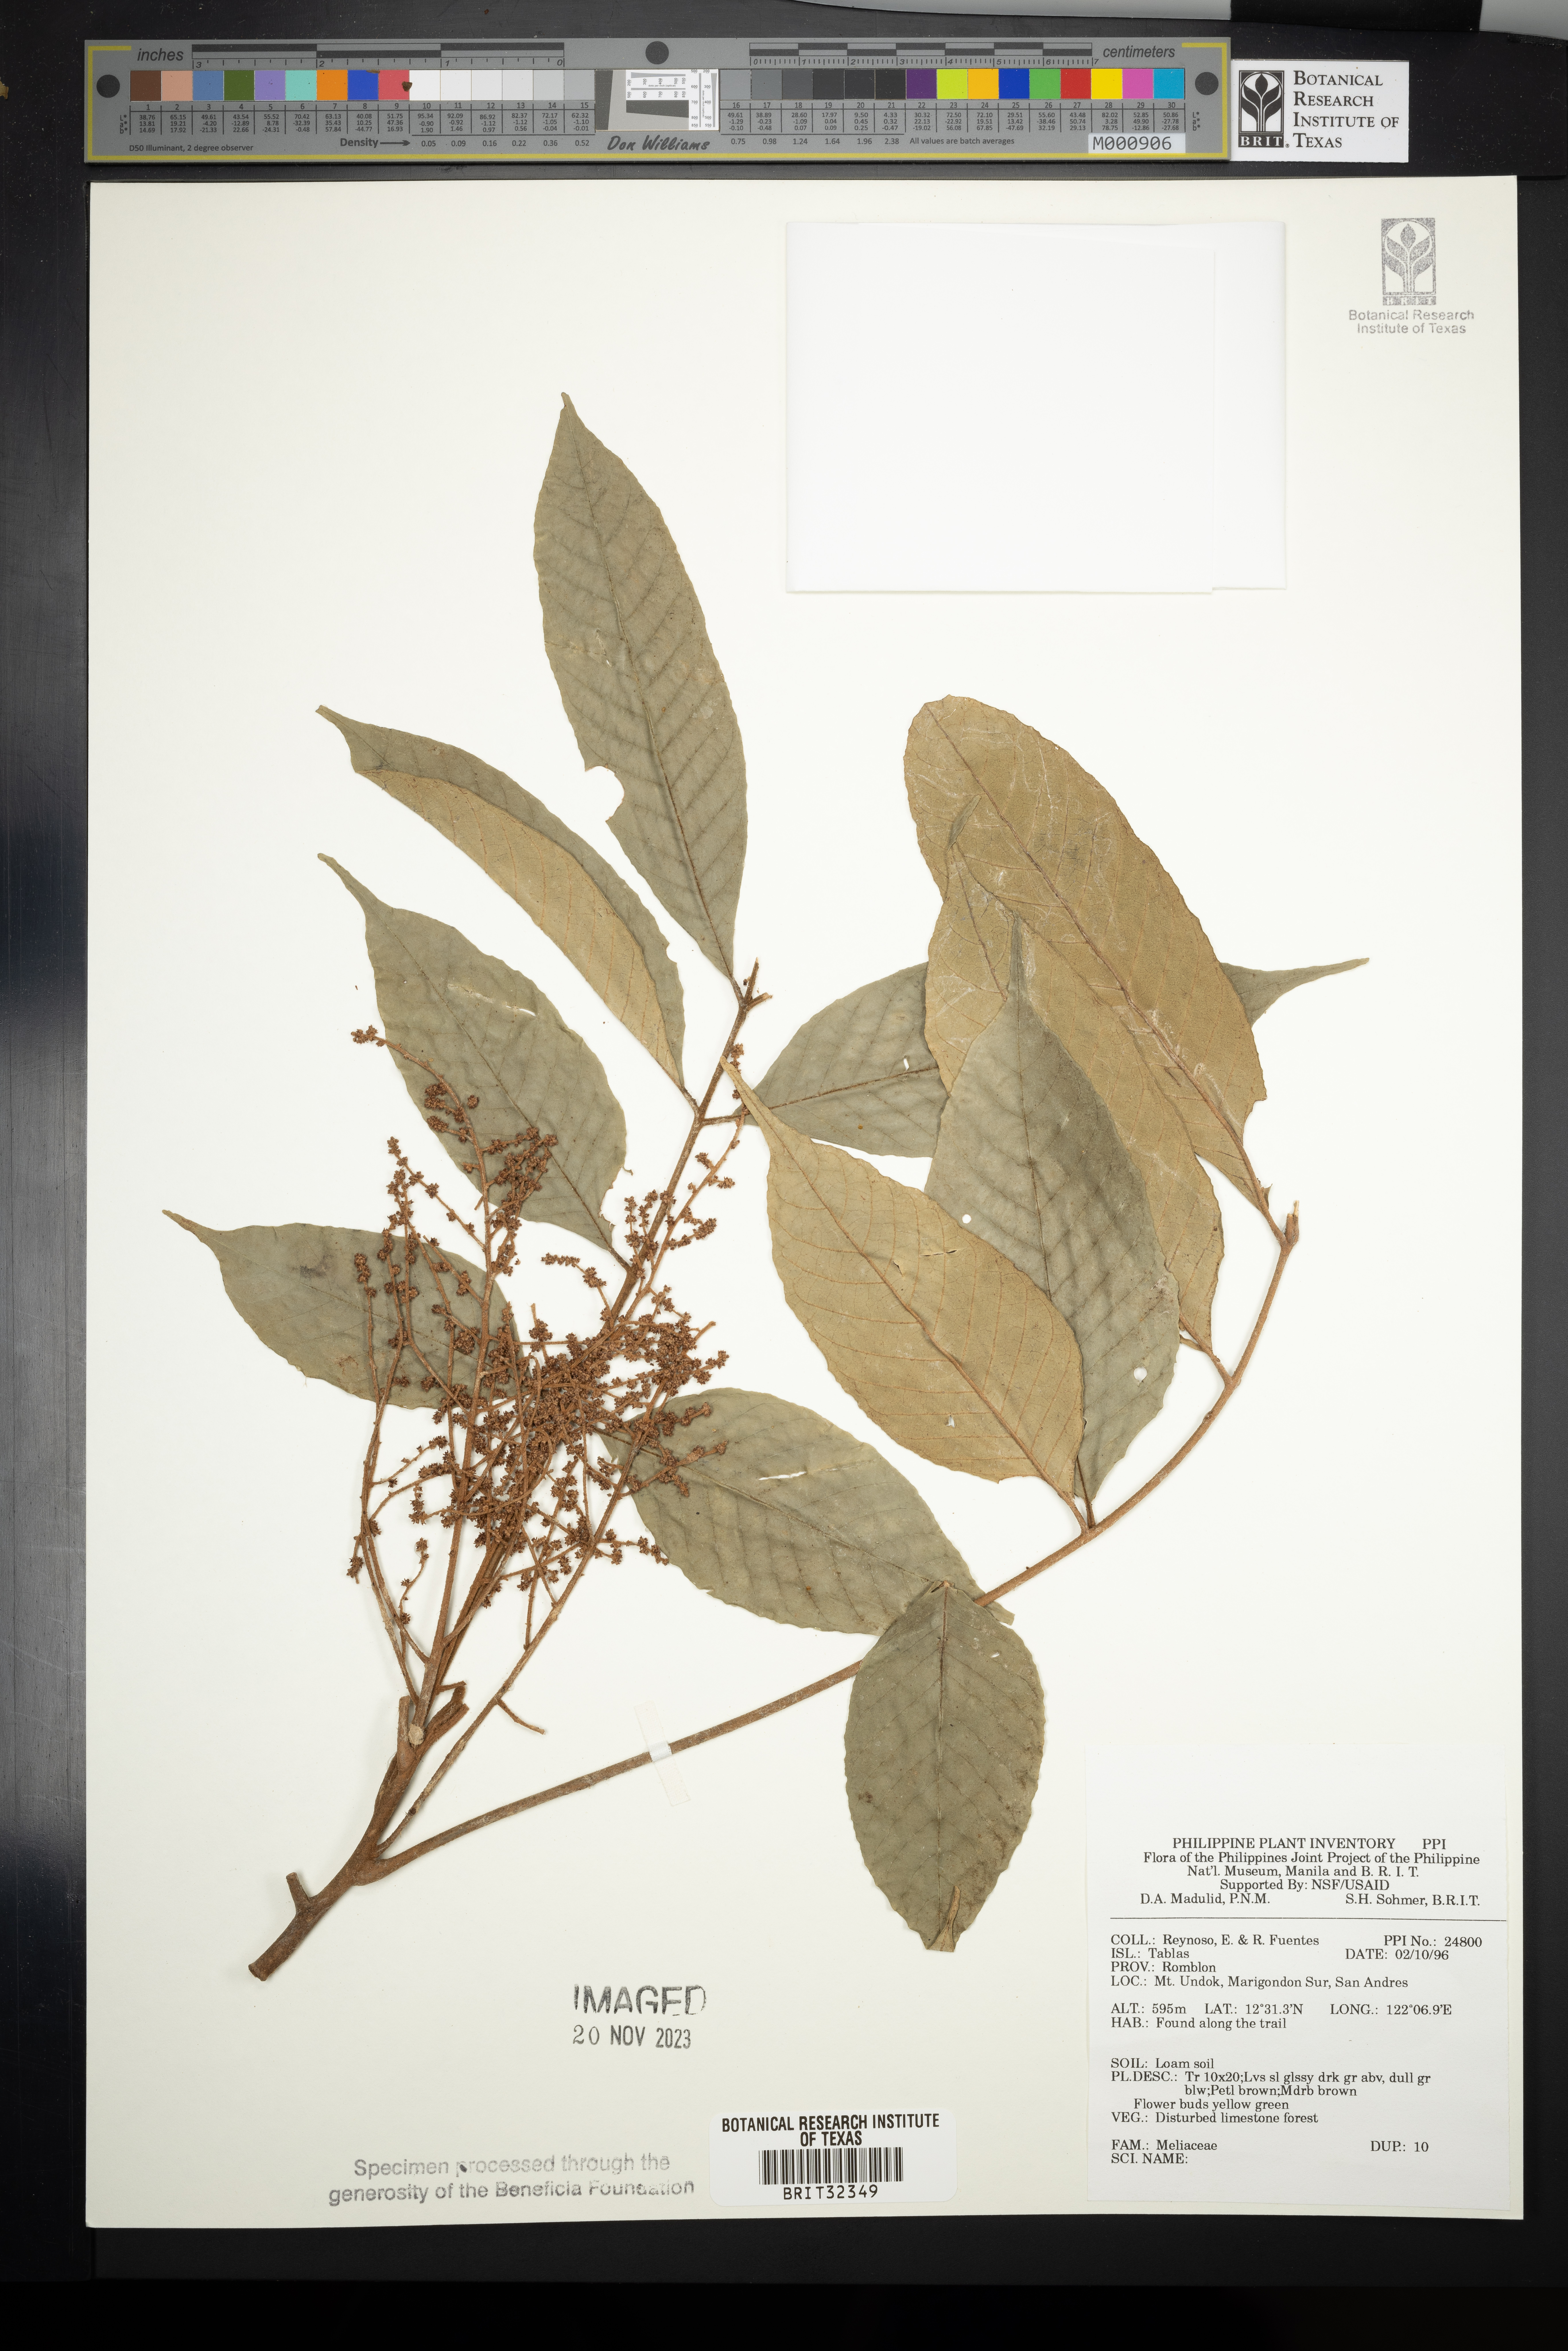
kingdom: Plantae
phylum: Tracheophyta
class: Magnoliopsida
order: Sapindales
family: Meliaceae
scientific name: Meliaceae
